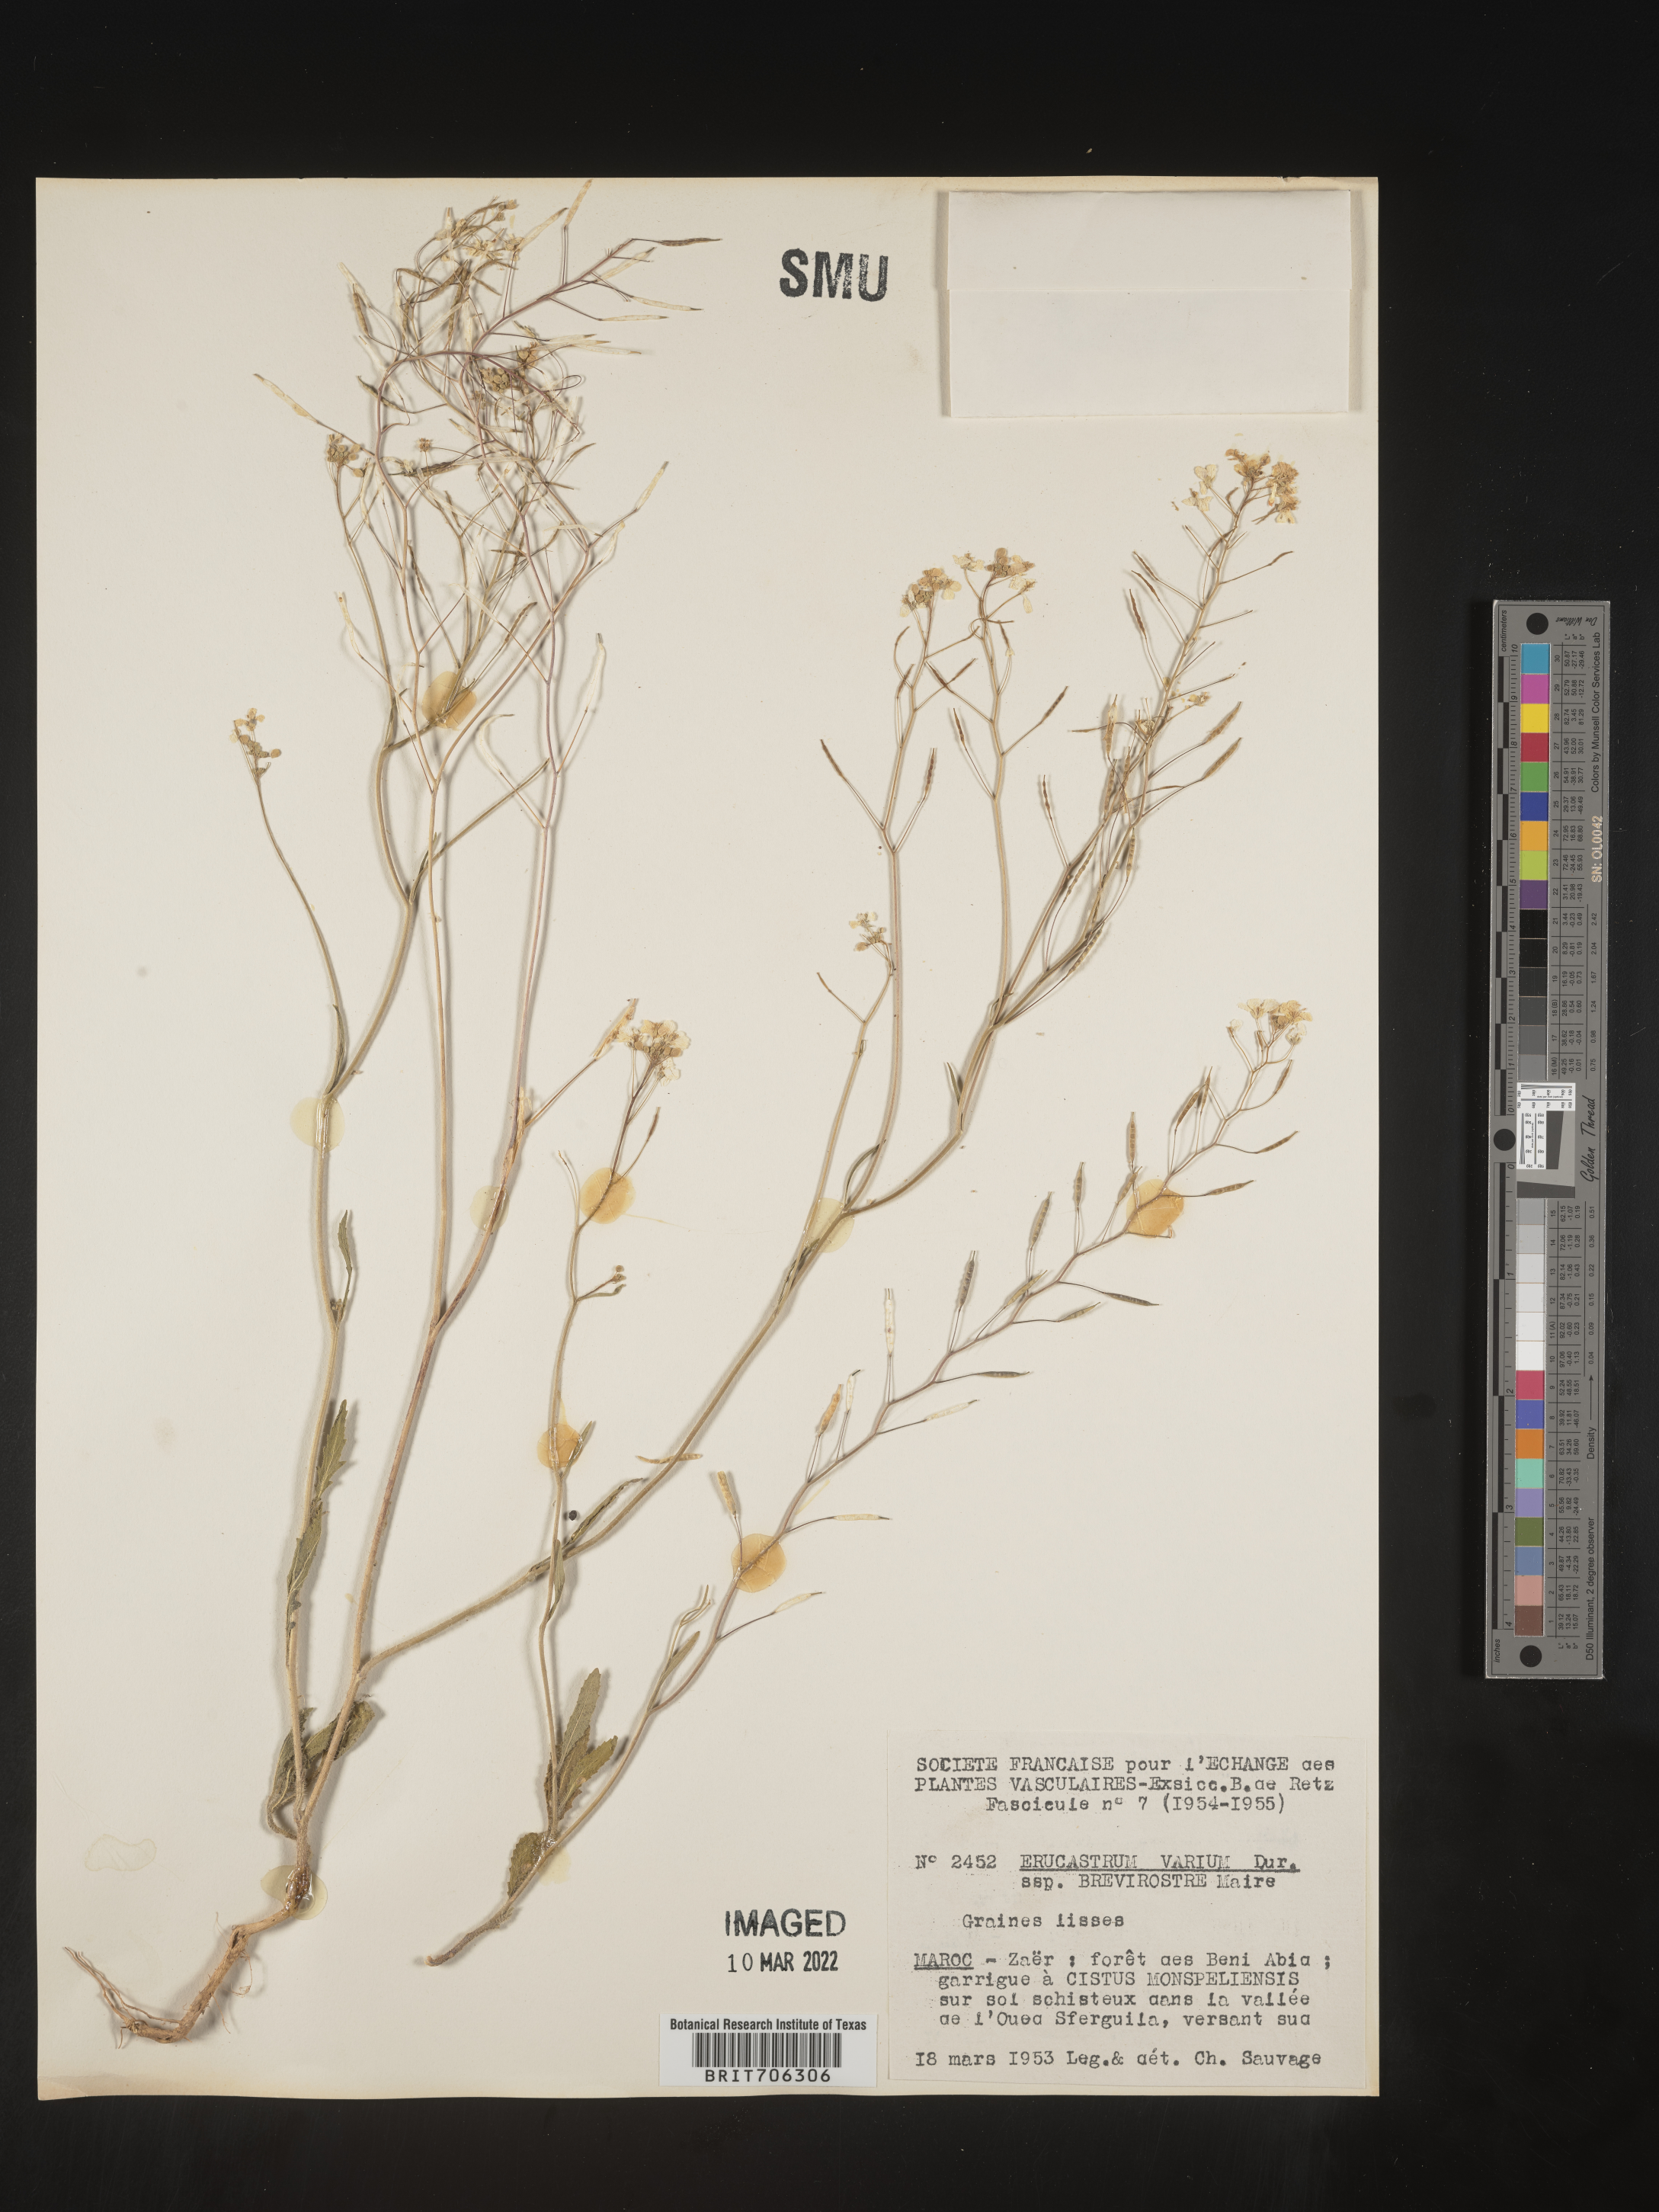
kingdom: Plantae
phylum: Tracheophyta
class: Magnoliopsida
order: Brassicales
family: Brassicaceae
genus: Erucastrum
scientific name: Erucastrum
